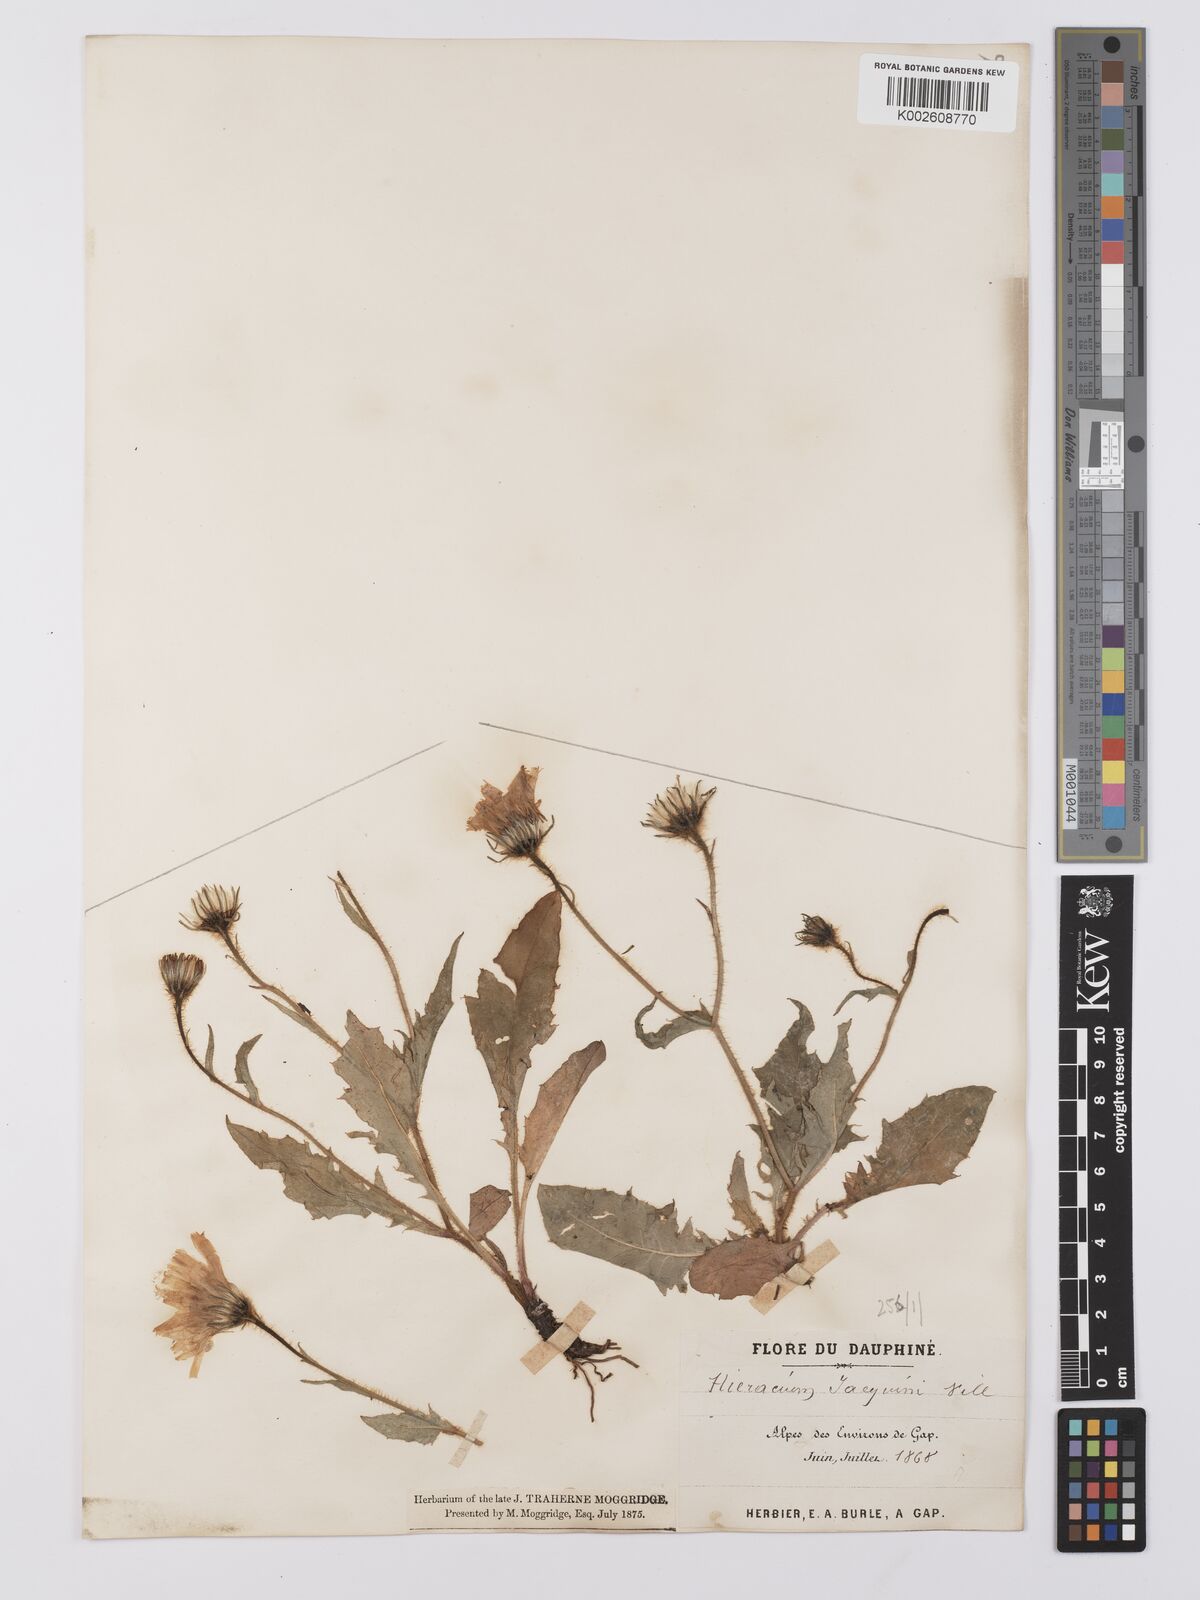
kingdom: Plantae
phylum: Tracheophyta
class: Magnoliopsida
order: Asterales
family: Asteraceae
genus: Hieracium
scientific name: Hieracium humile
